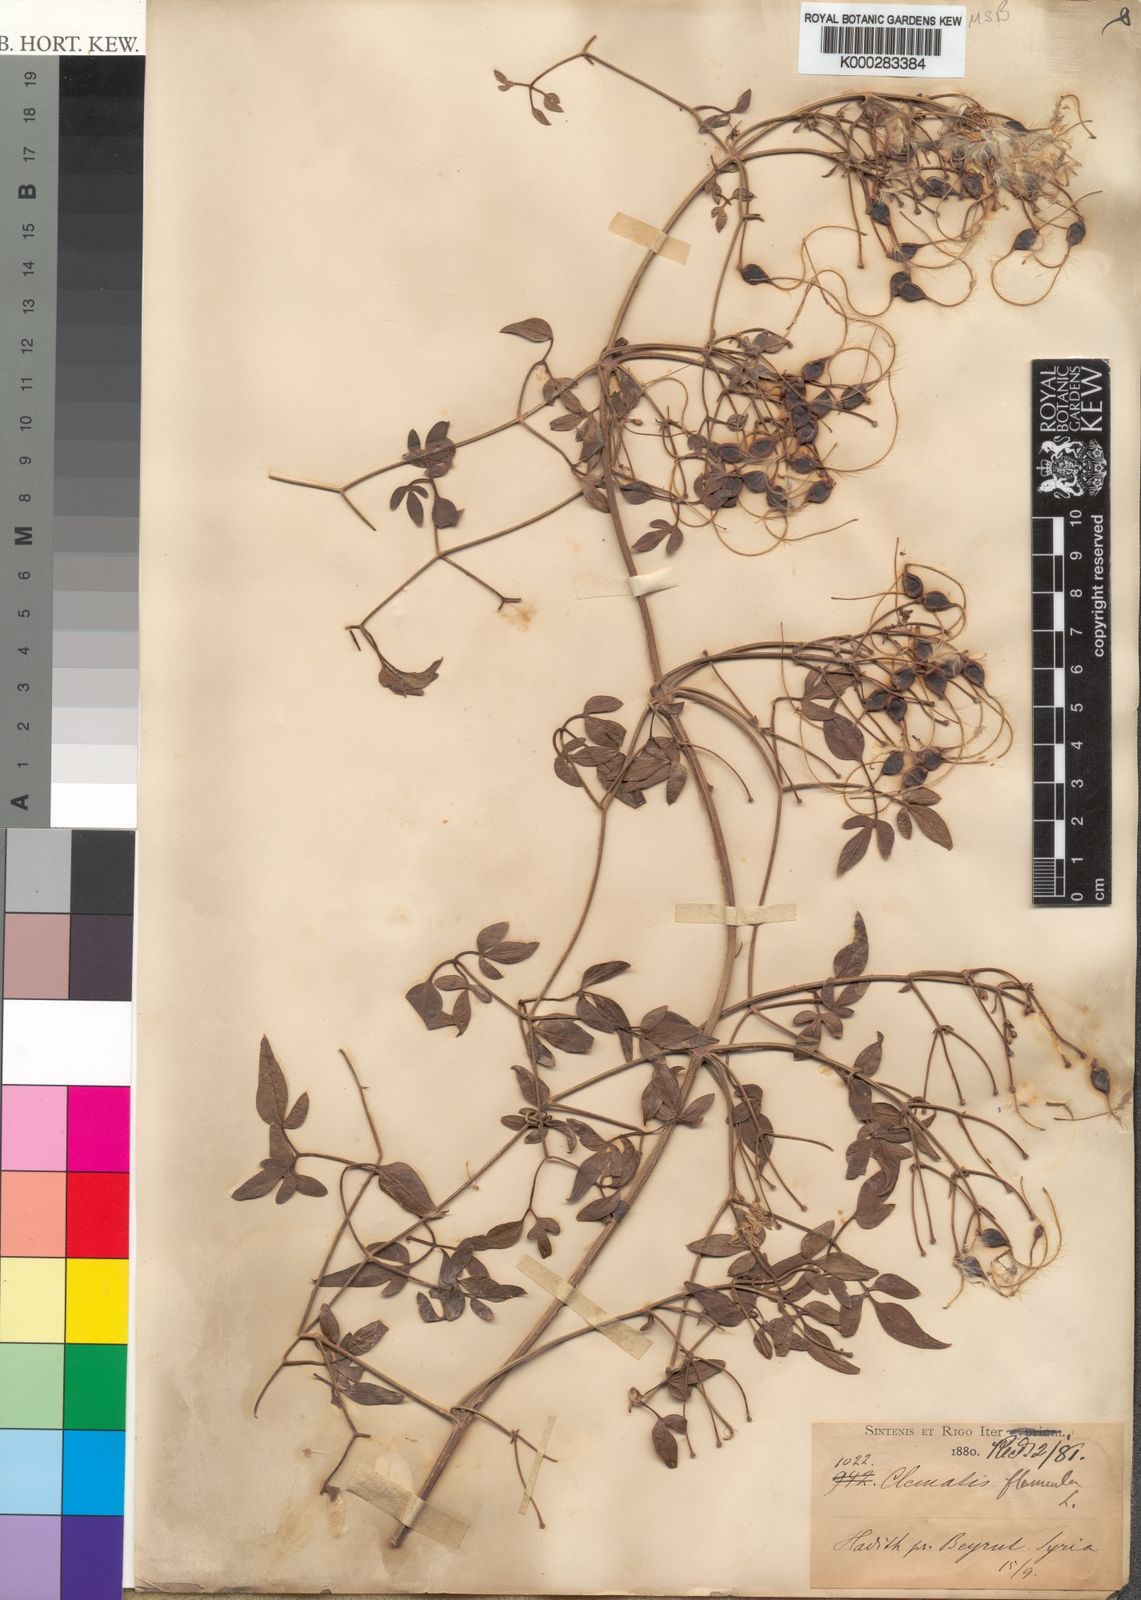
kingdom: Plantae
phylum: Tracheophyta
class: Magnoliopsida
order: Ranunculales
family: Ranunculaceae
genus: Clematis
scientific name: Clematis flammula
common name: Virgin's-bower
